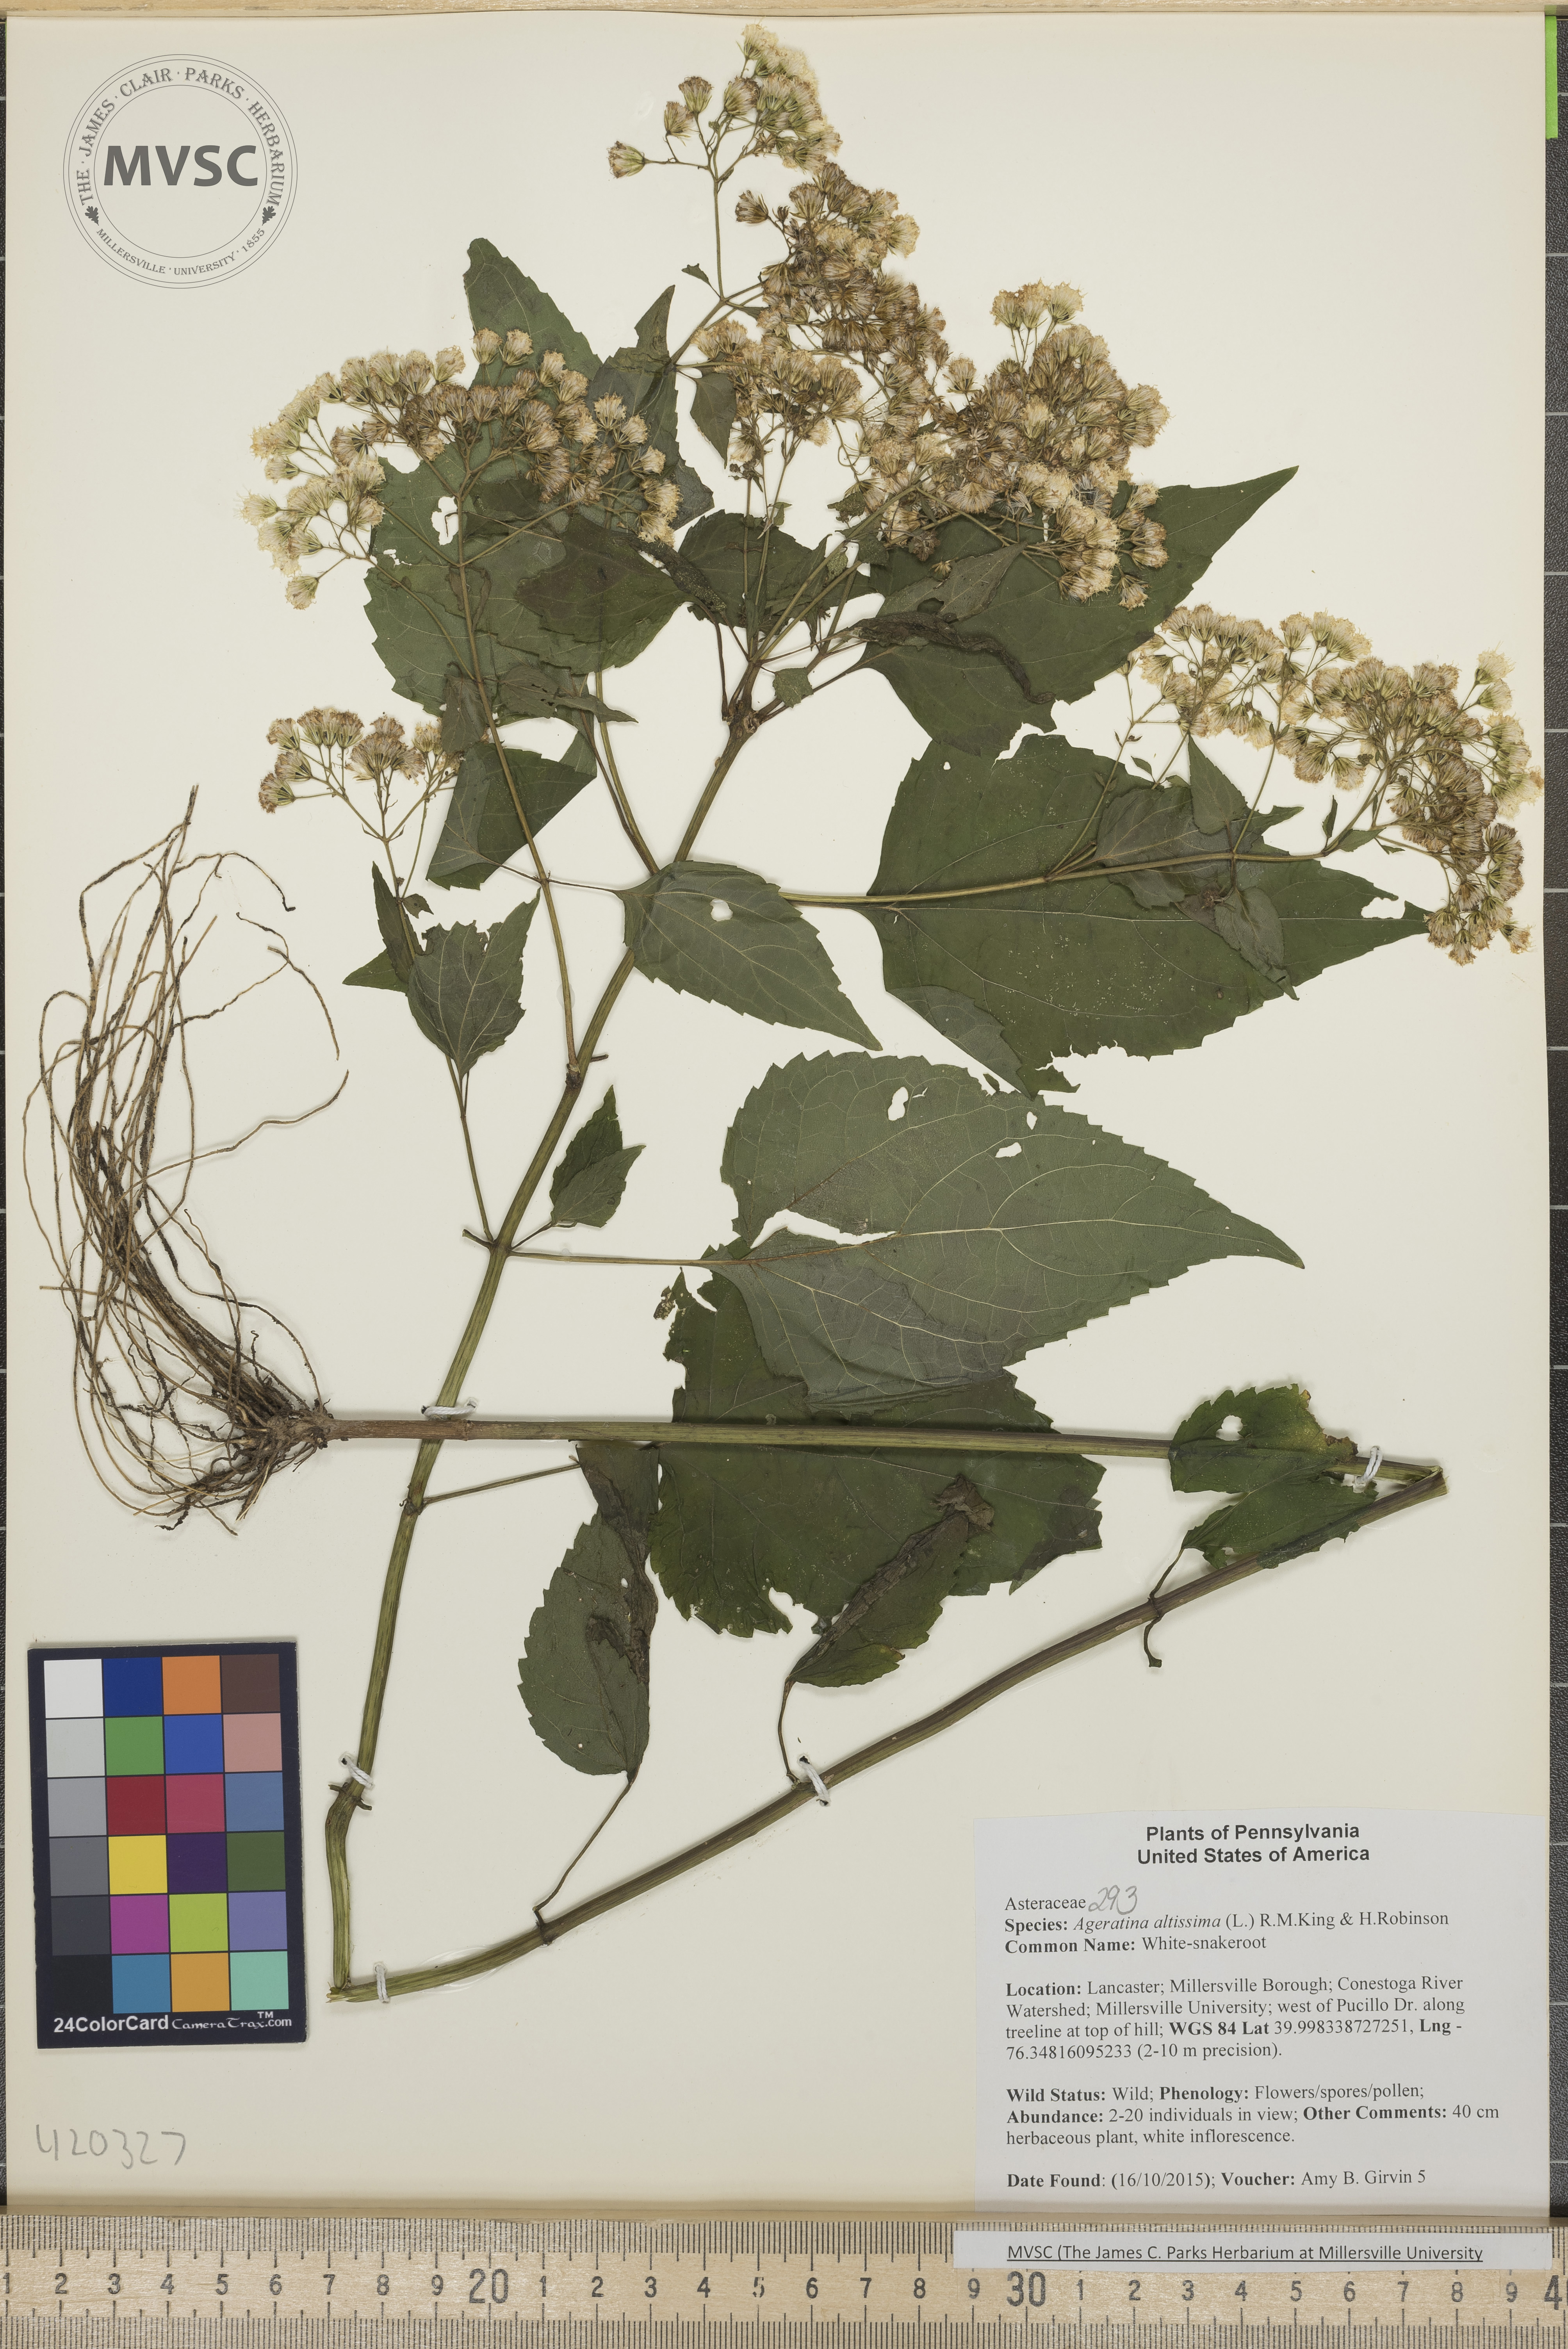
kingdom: Plantae
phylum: Tracheophyta
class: Magnoliopsida
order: Asterales
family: Asteraceae
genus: Ageratina
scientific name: Ageratina altissima
